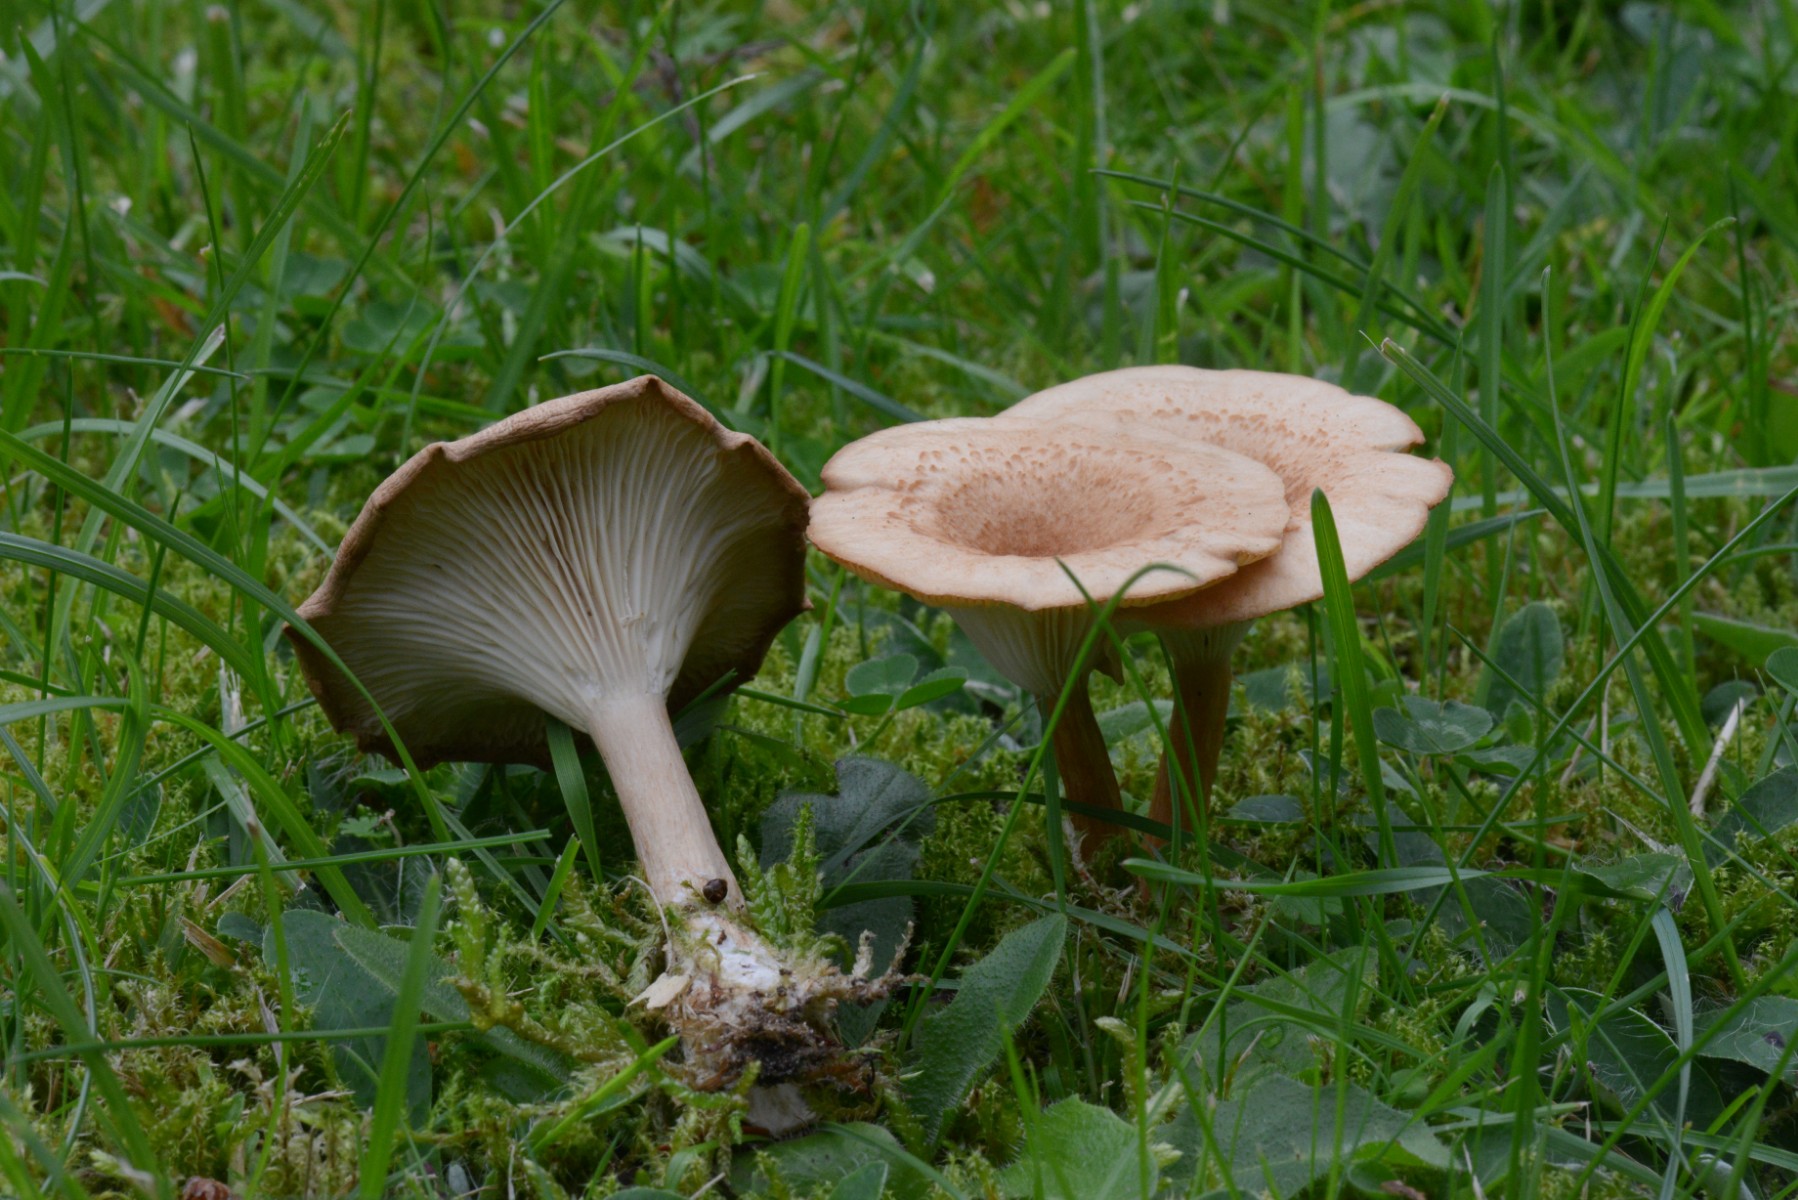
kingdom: Fungi
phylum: Basidiomycota
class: Agaricomycetes
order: Agaricales
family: Tricholomataceae
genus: Infundibulicybe
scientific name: Infundibulicybe squamulosa
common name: småskællet tragthat
